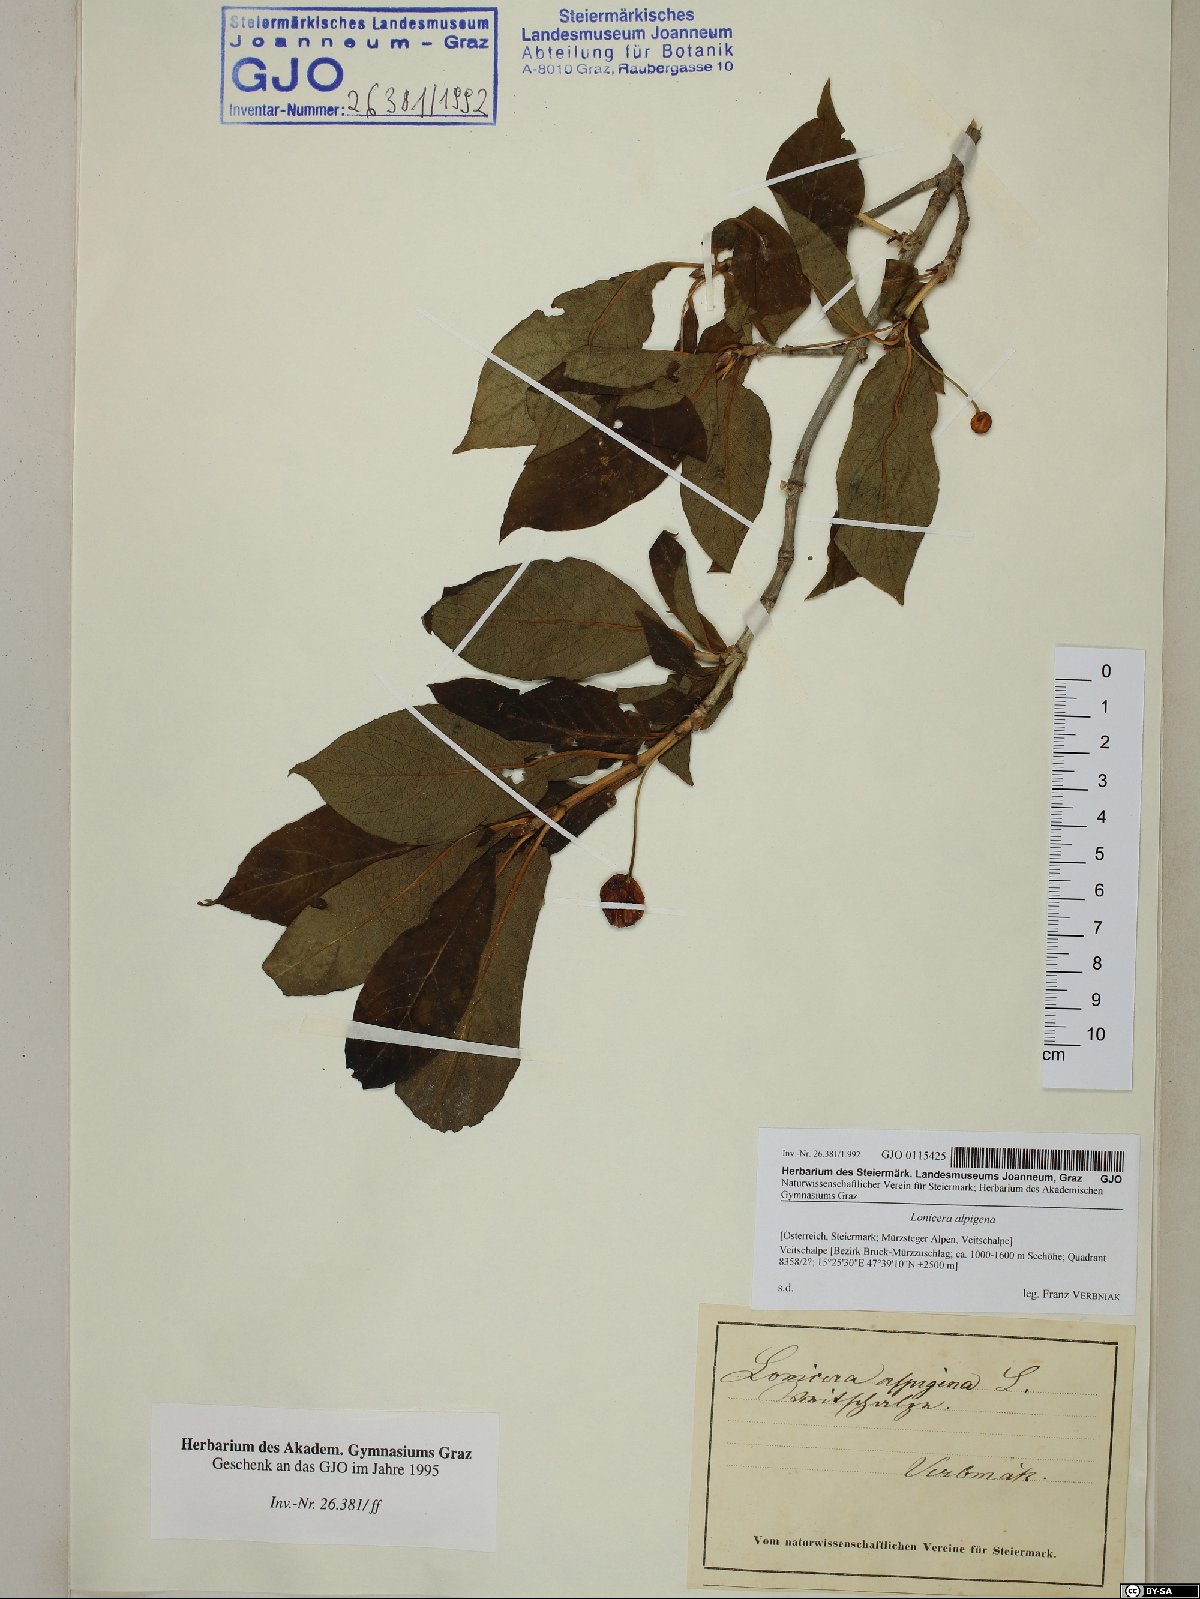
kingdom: Plantae
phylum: Tracheophyta
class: Magnoliopsida
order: Dipsacales
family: Caprifoliaceae
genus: Lonicera
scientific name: Lonicera alpigena
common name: Alpine honeysuckle
